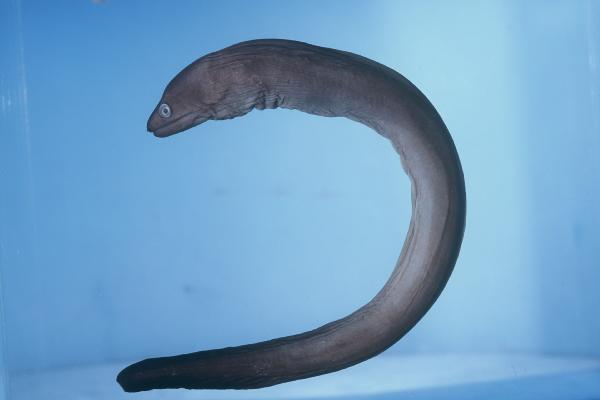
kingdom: Animalia
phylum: Chordata
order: Anguilliformes
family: Muraenidae
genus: Gymnothorax
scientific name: Gymnothorax pindae
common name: Pinda moray
